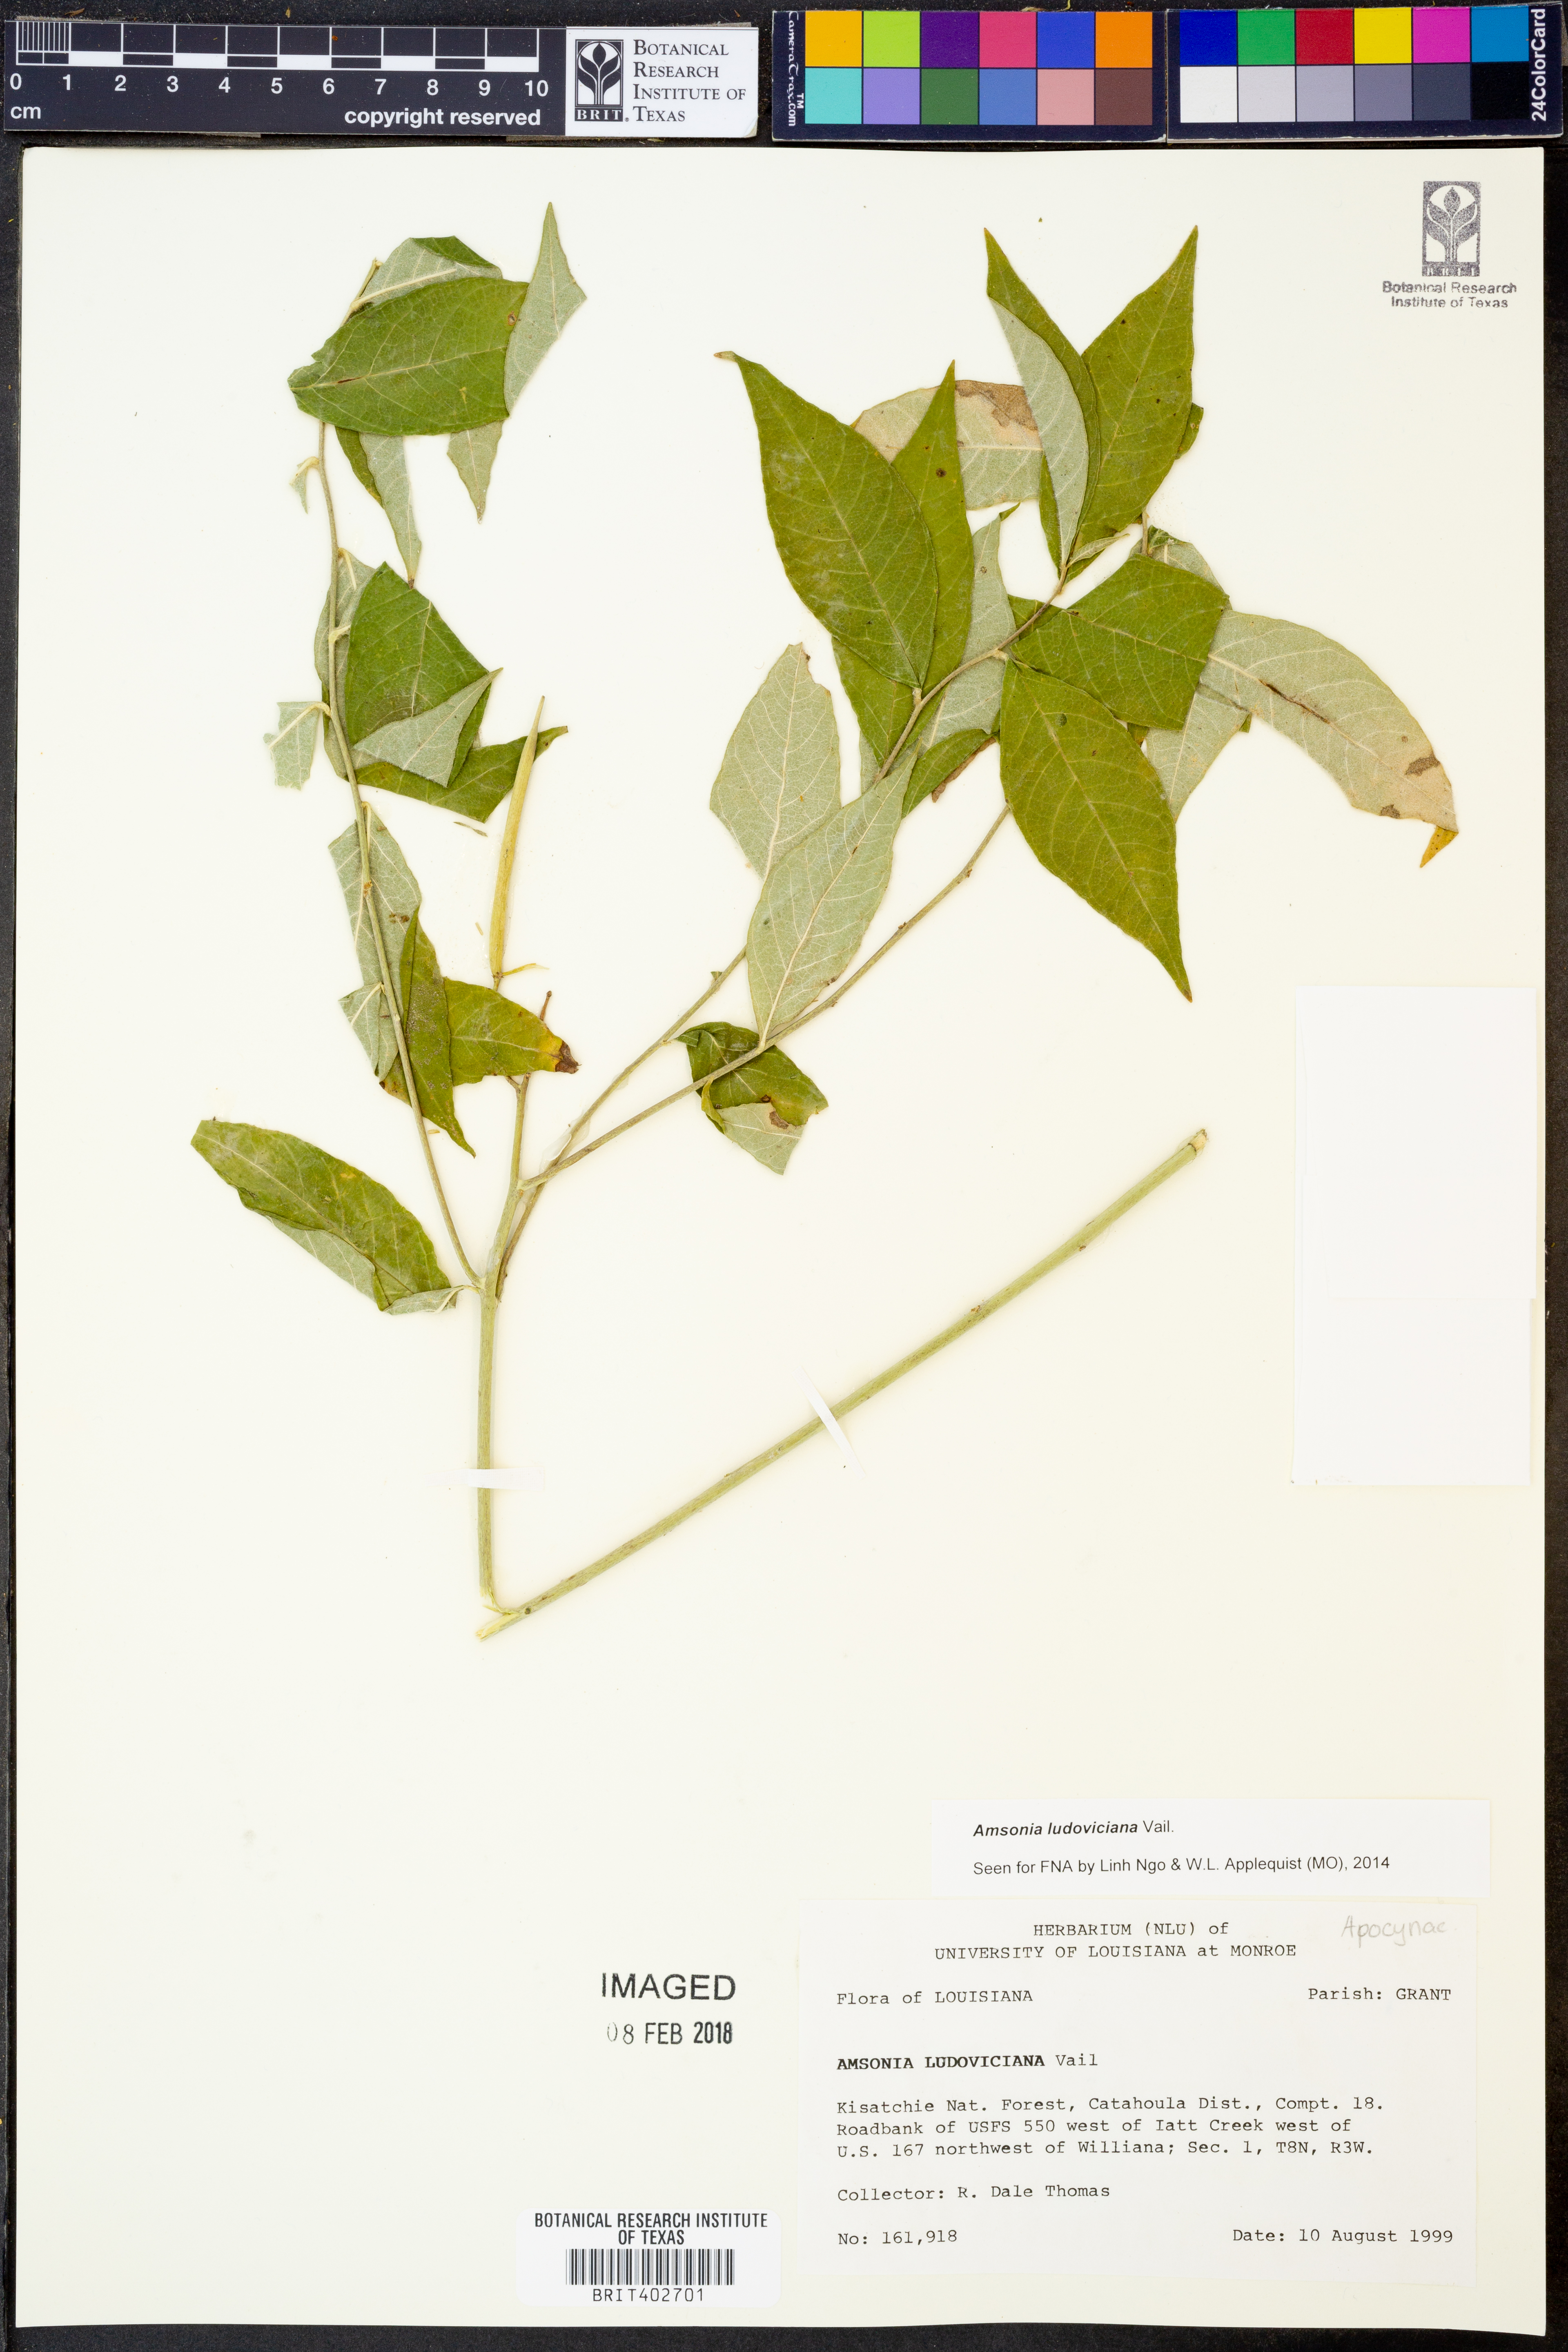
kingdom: Plantae
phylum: Tracheophyta
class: Magnoliopsida
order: Gentianales
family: Apocynaceae
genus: Amsonia
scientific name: Amsonia ludoviciana
